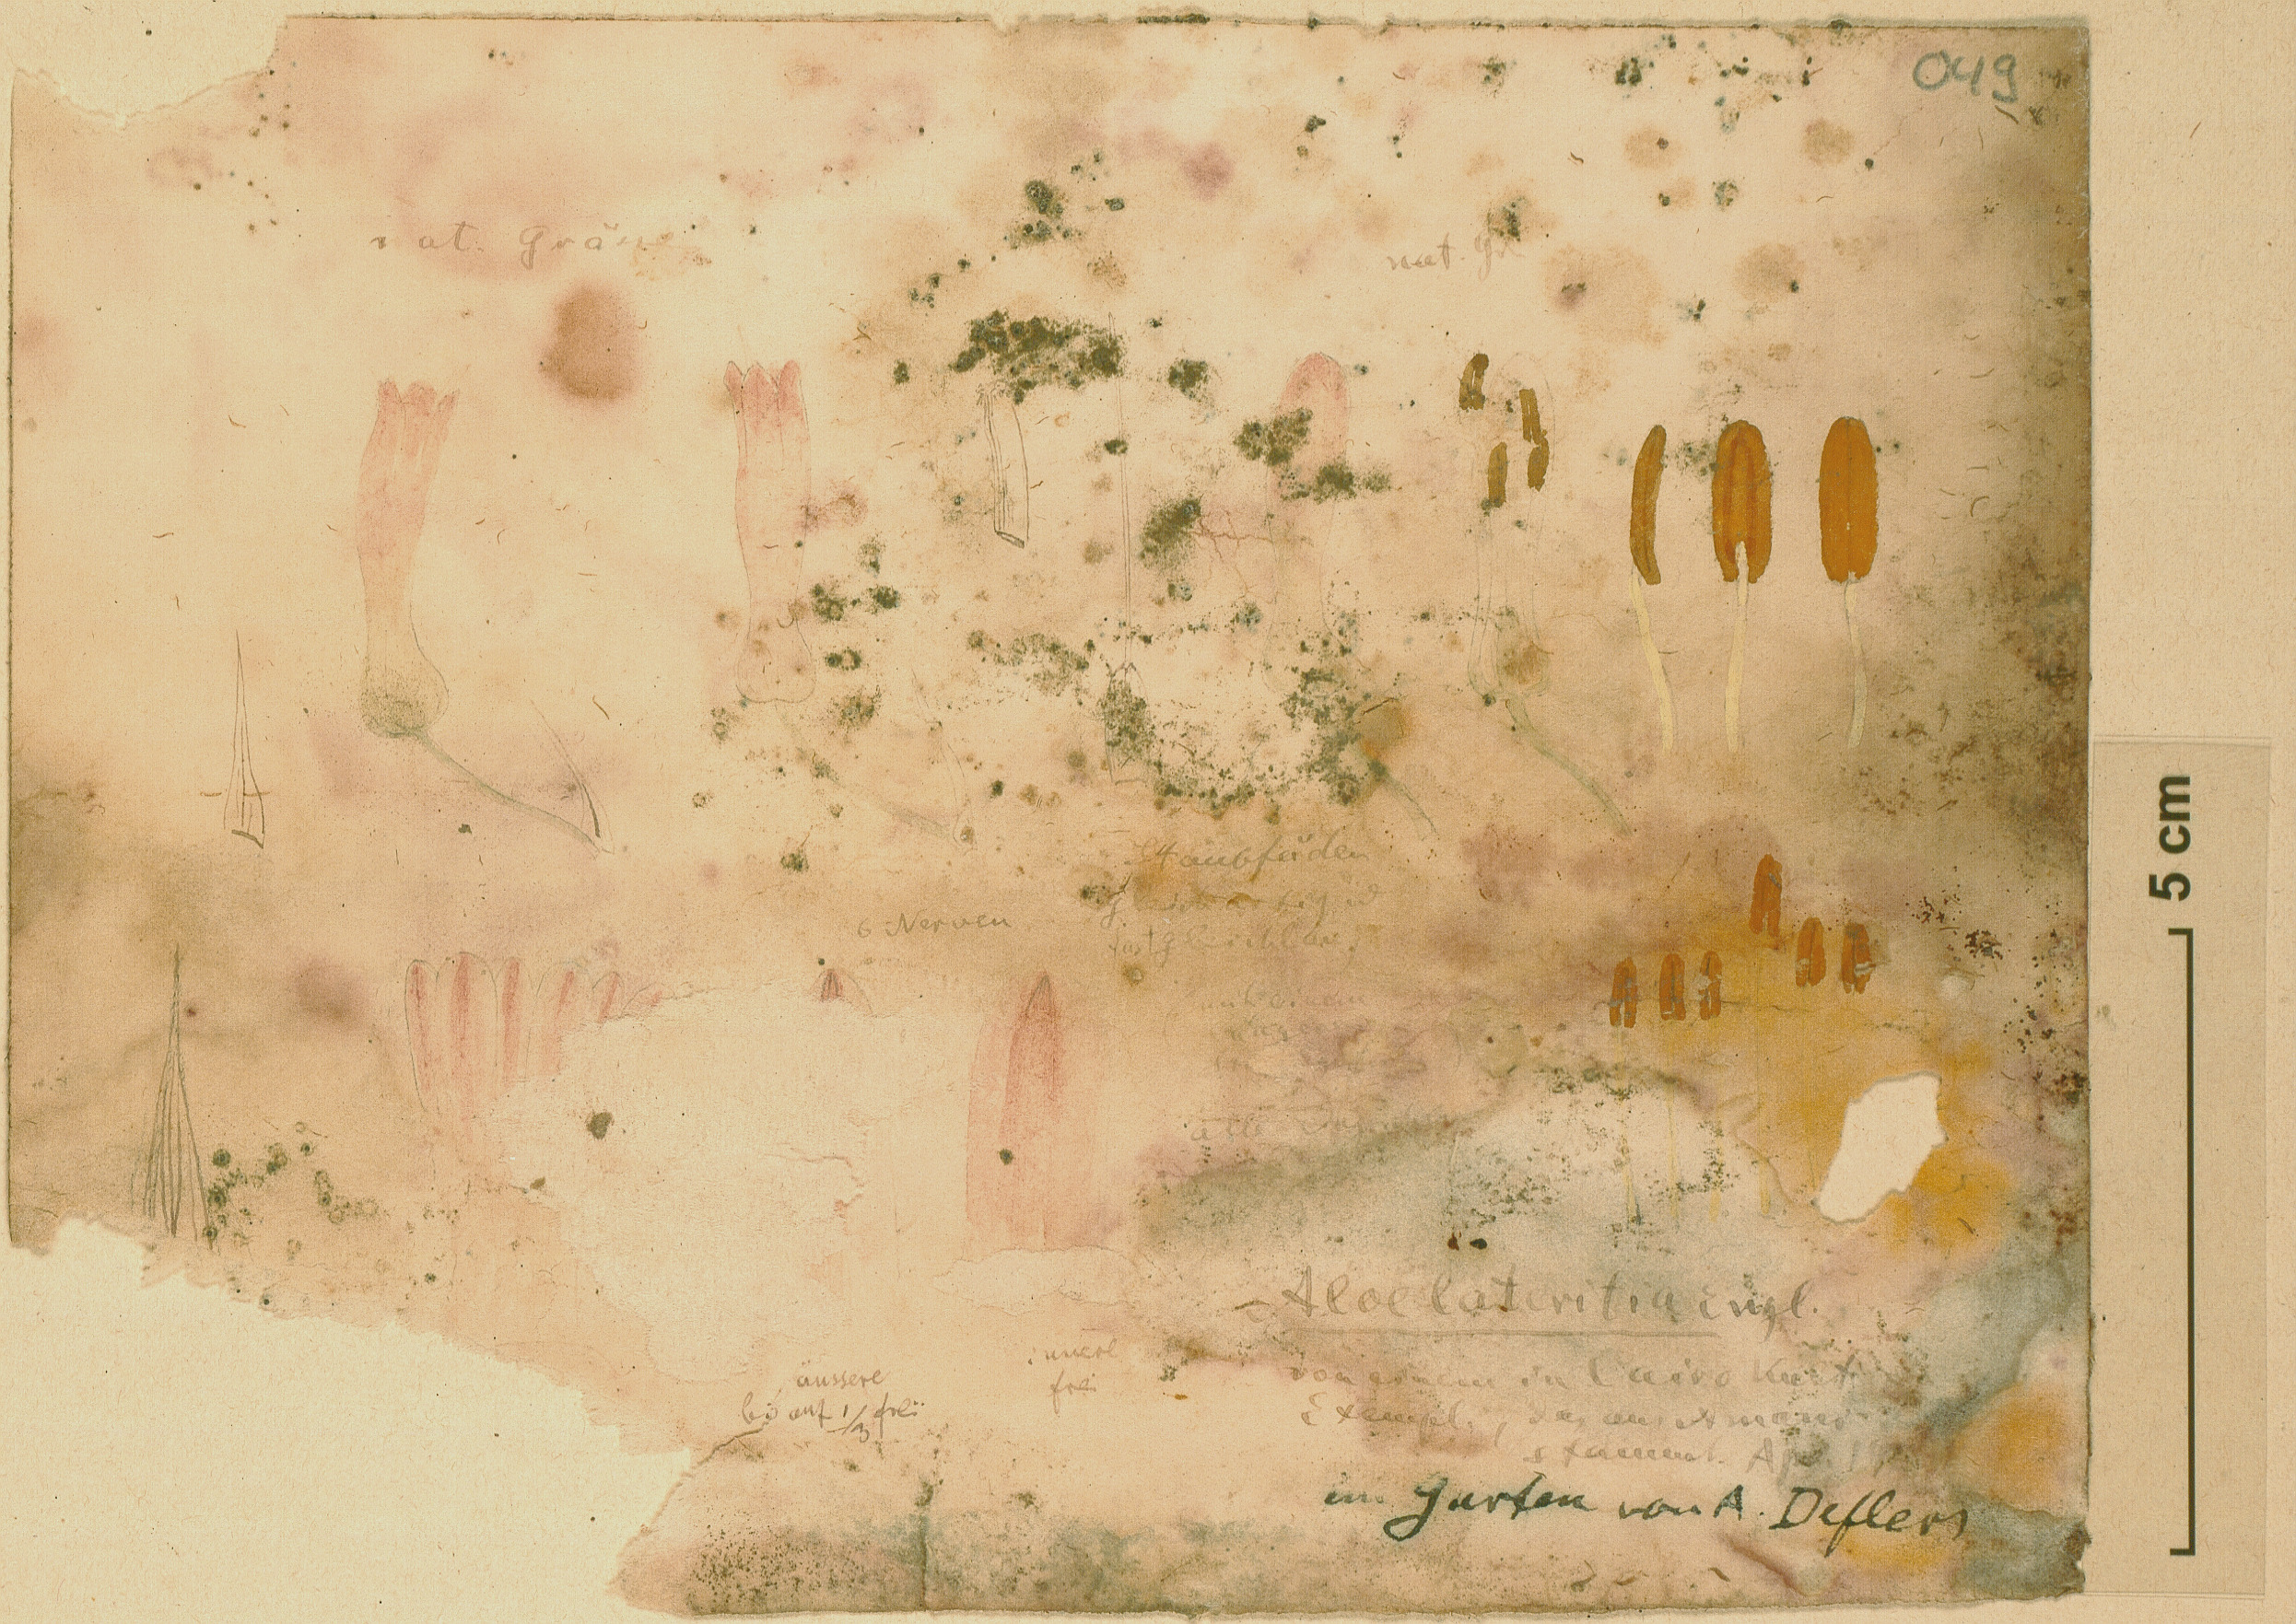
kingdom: Plantae
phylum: Tracheophyta
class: Liliopsida
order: Asparagales
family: Asphodelaceae
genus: Aloe
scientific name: Aloe lateritia
